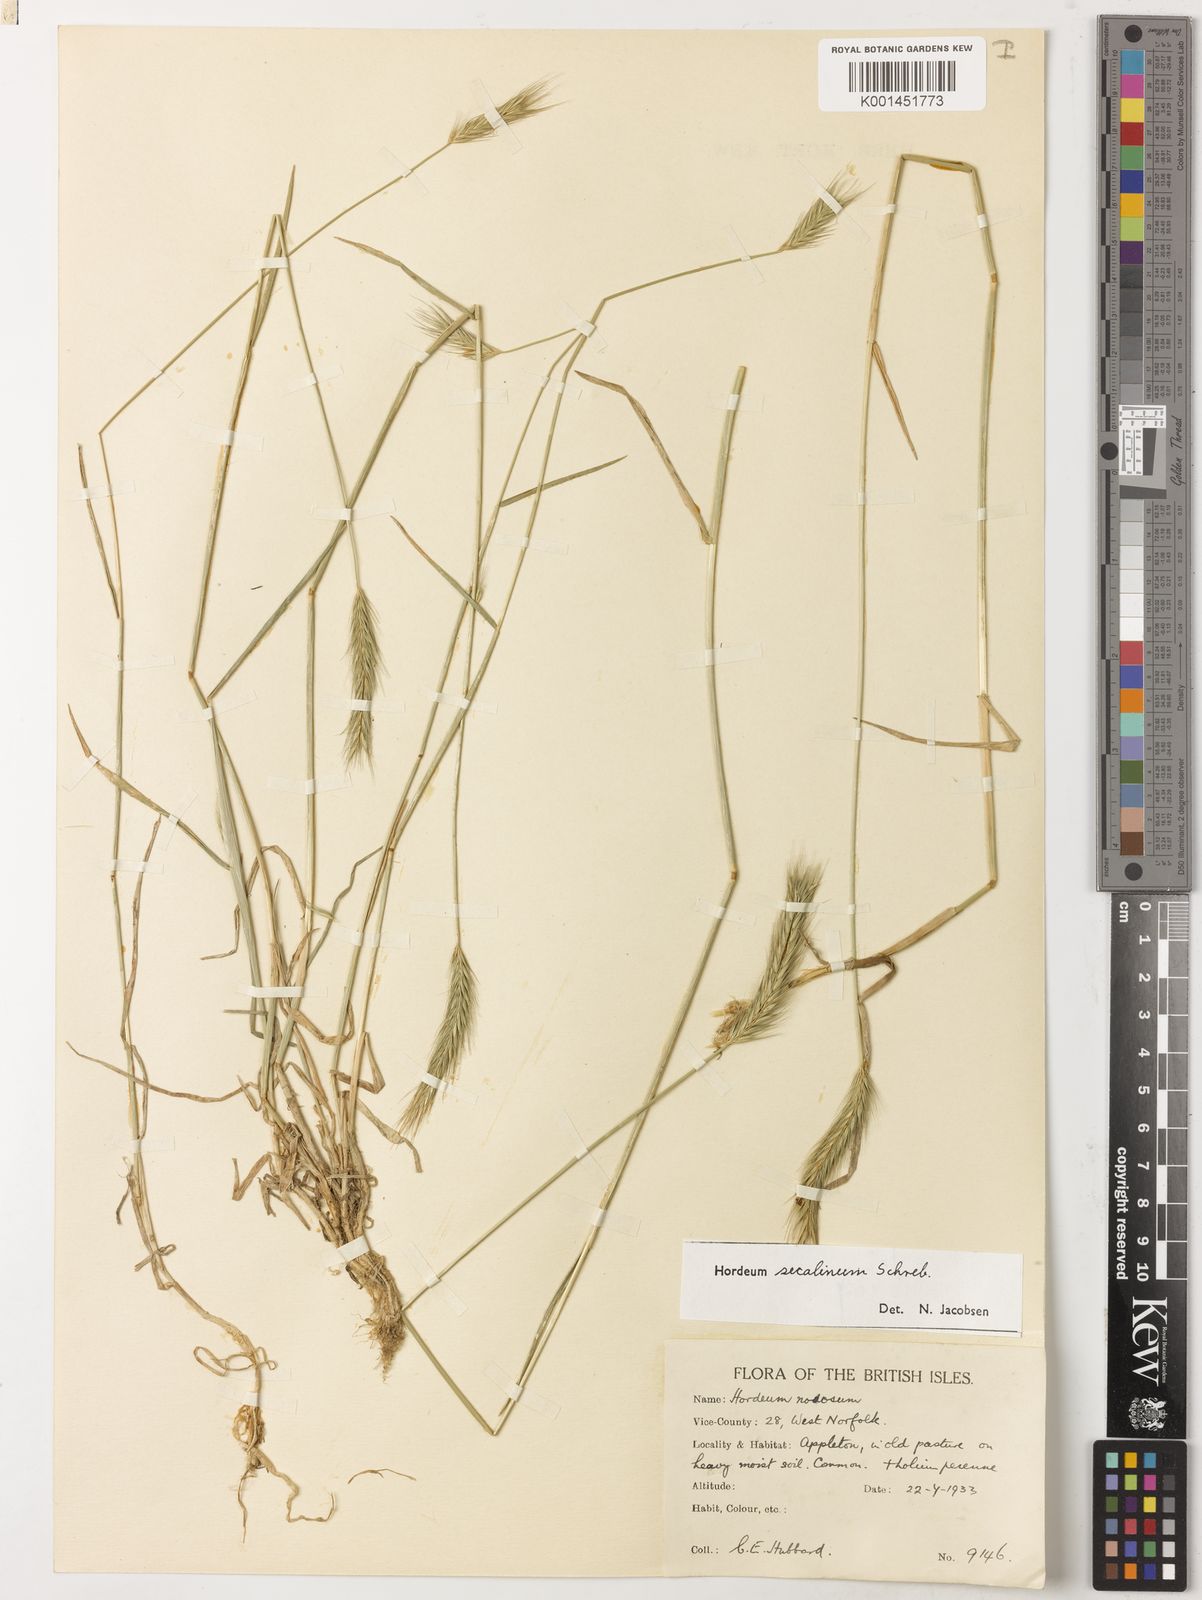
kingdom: Plantae
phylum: Tracheophyta
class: Liliopsida
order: Poales
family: Poaceae
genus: Hordeum
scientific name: Hordeum secalinum
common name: Meadow barley
